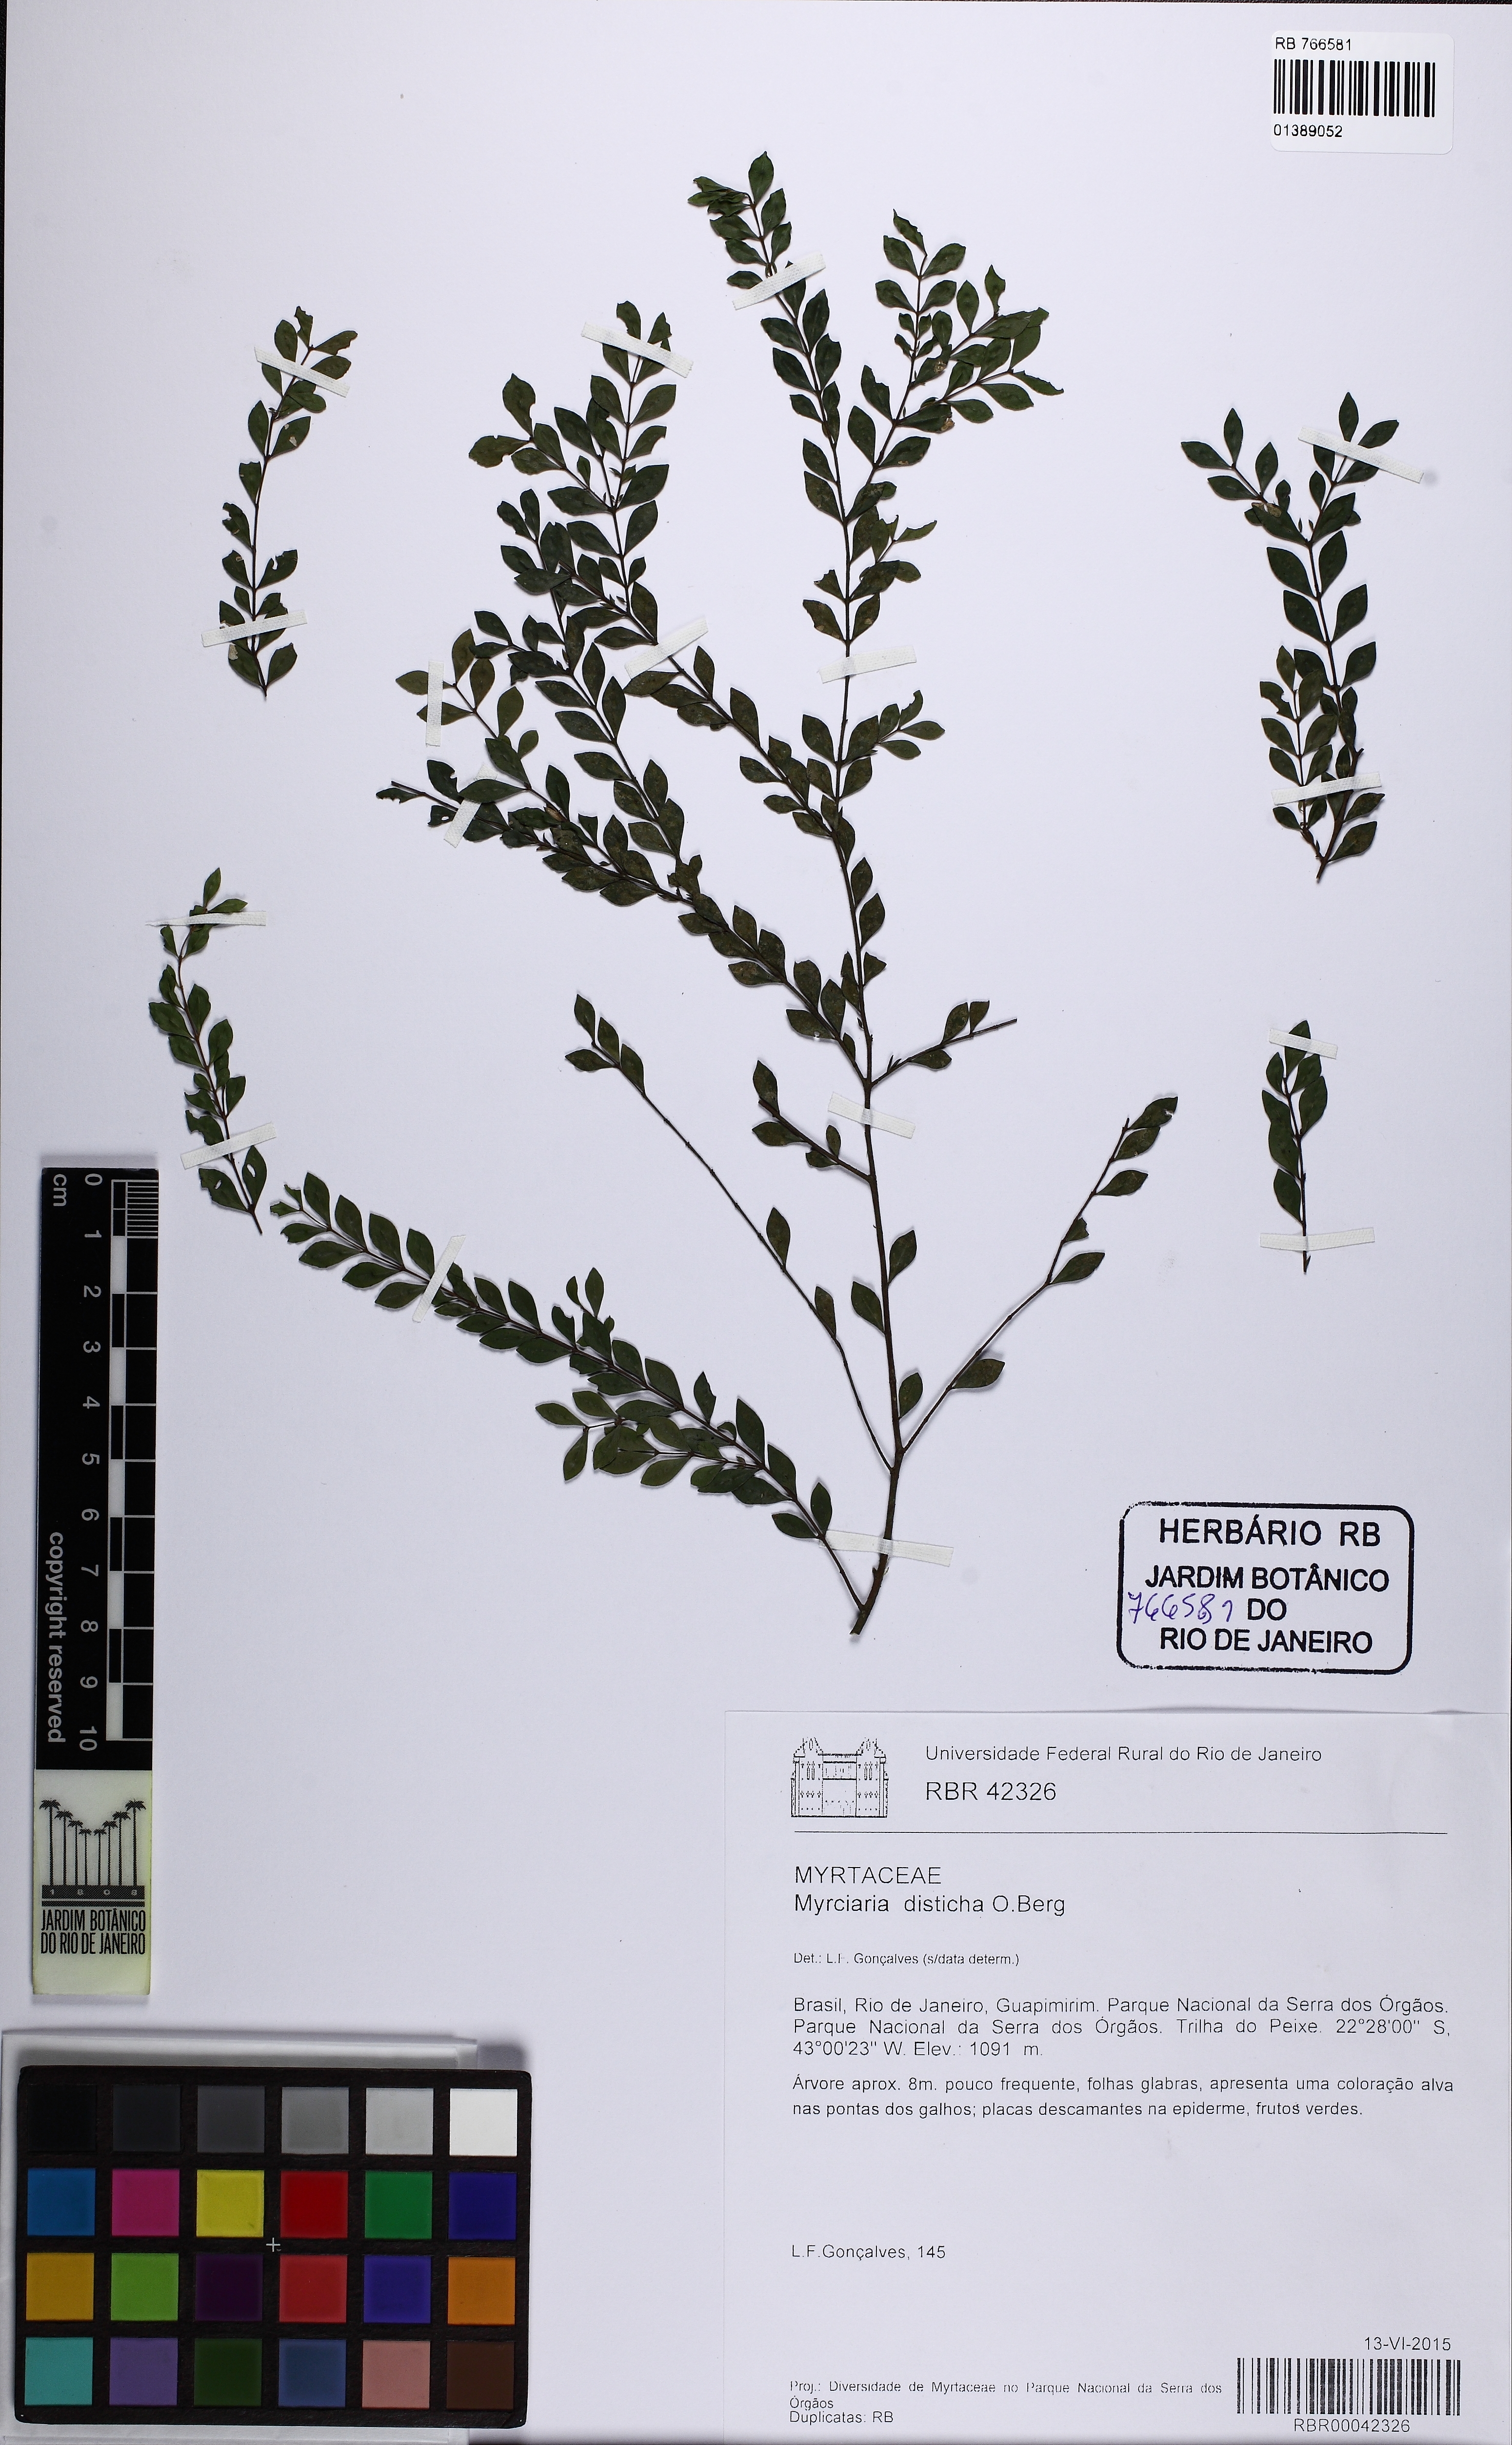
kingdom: Plantae
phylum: Tracheophyta
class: Magnoliopsida
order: Myrtales
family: Myrtaceae
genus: Myrciaria
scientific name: Myrciaria disticha
